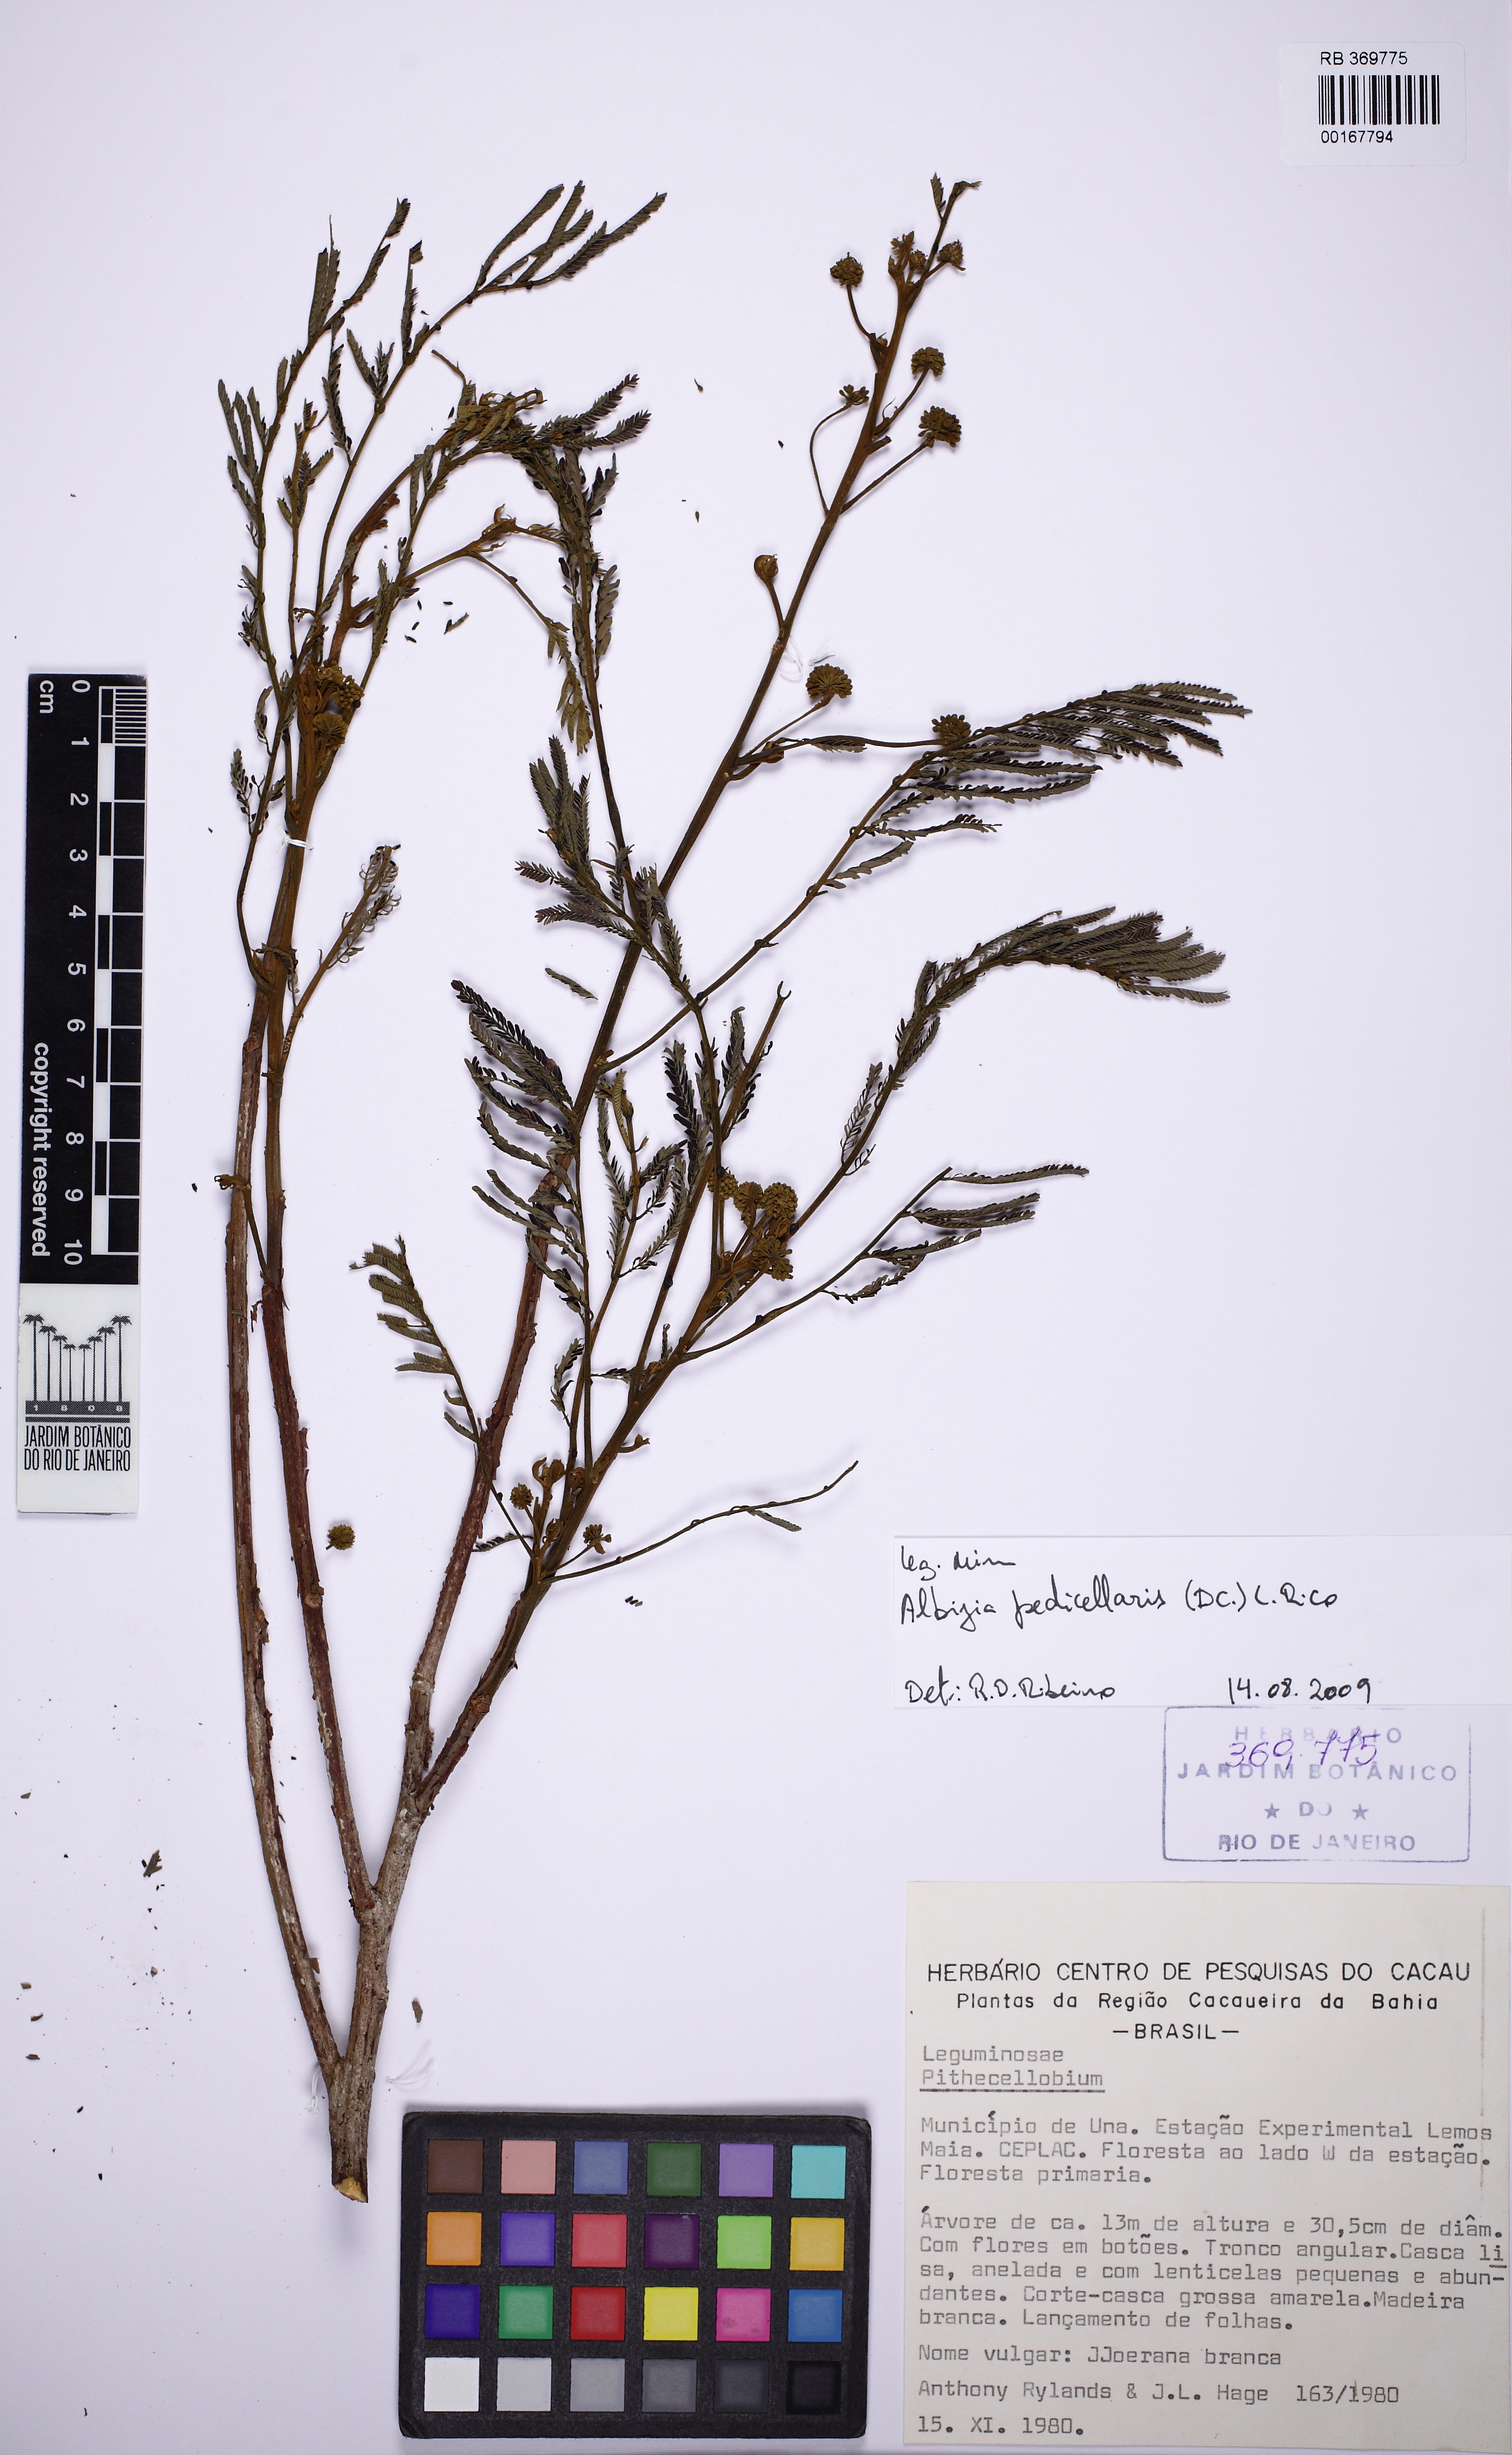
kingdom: Plantae
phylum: Tracheophyta
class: Magnoliopsida
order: Fabales
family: Fabaceae
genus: Pithecellobium
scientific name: Pithecellobium
